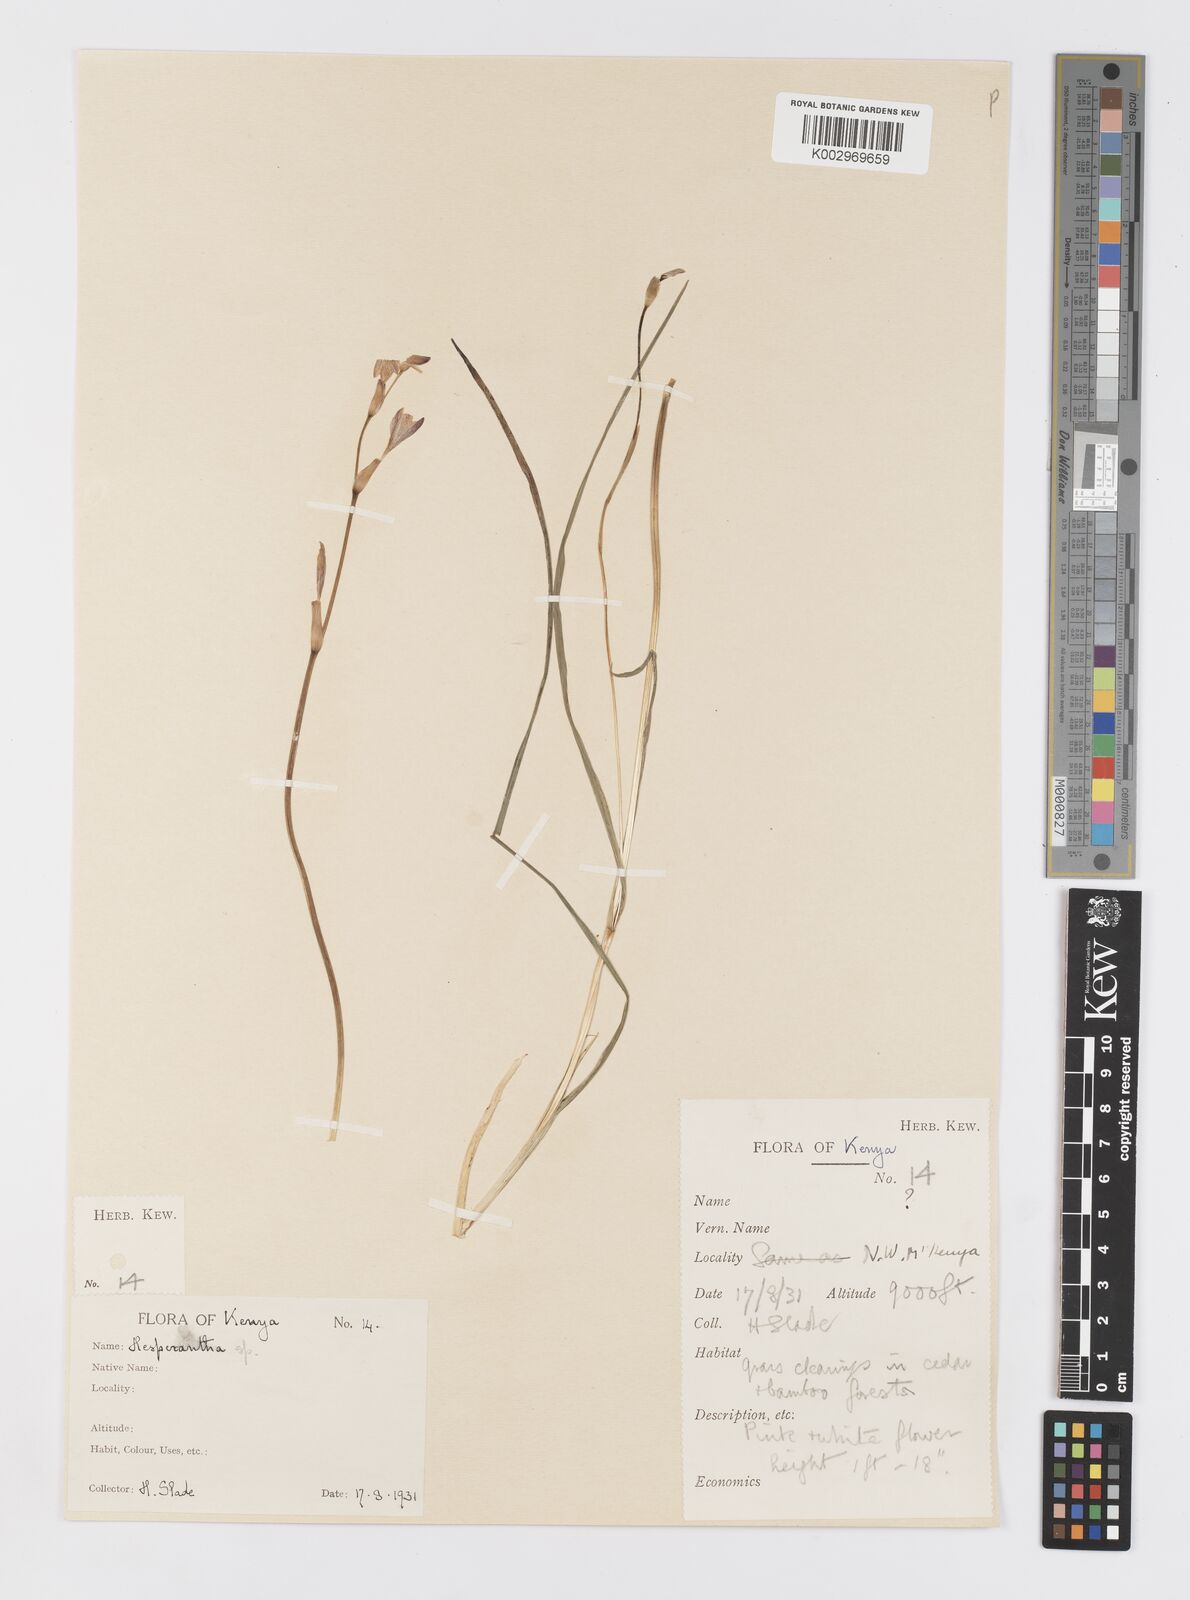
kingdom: Plantae
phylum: Tracheophyta
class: Liliopsida
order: Asparagales
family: Iridaceae
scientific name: Iridaceae
